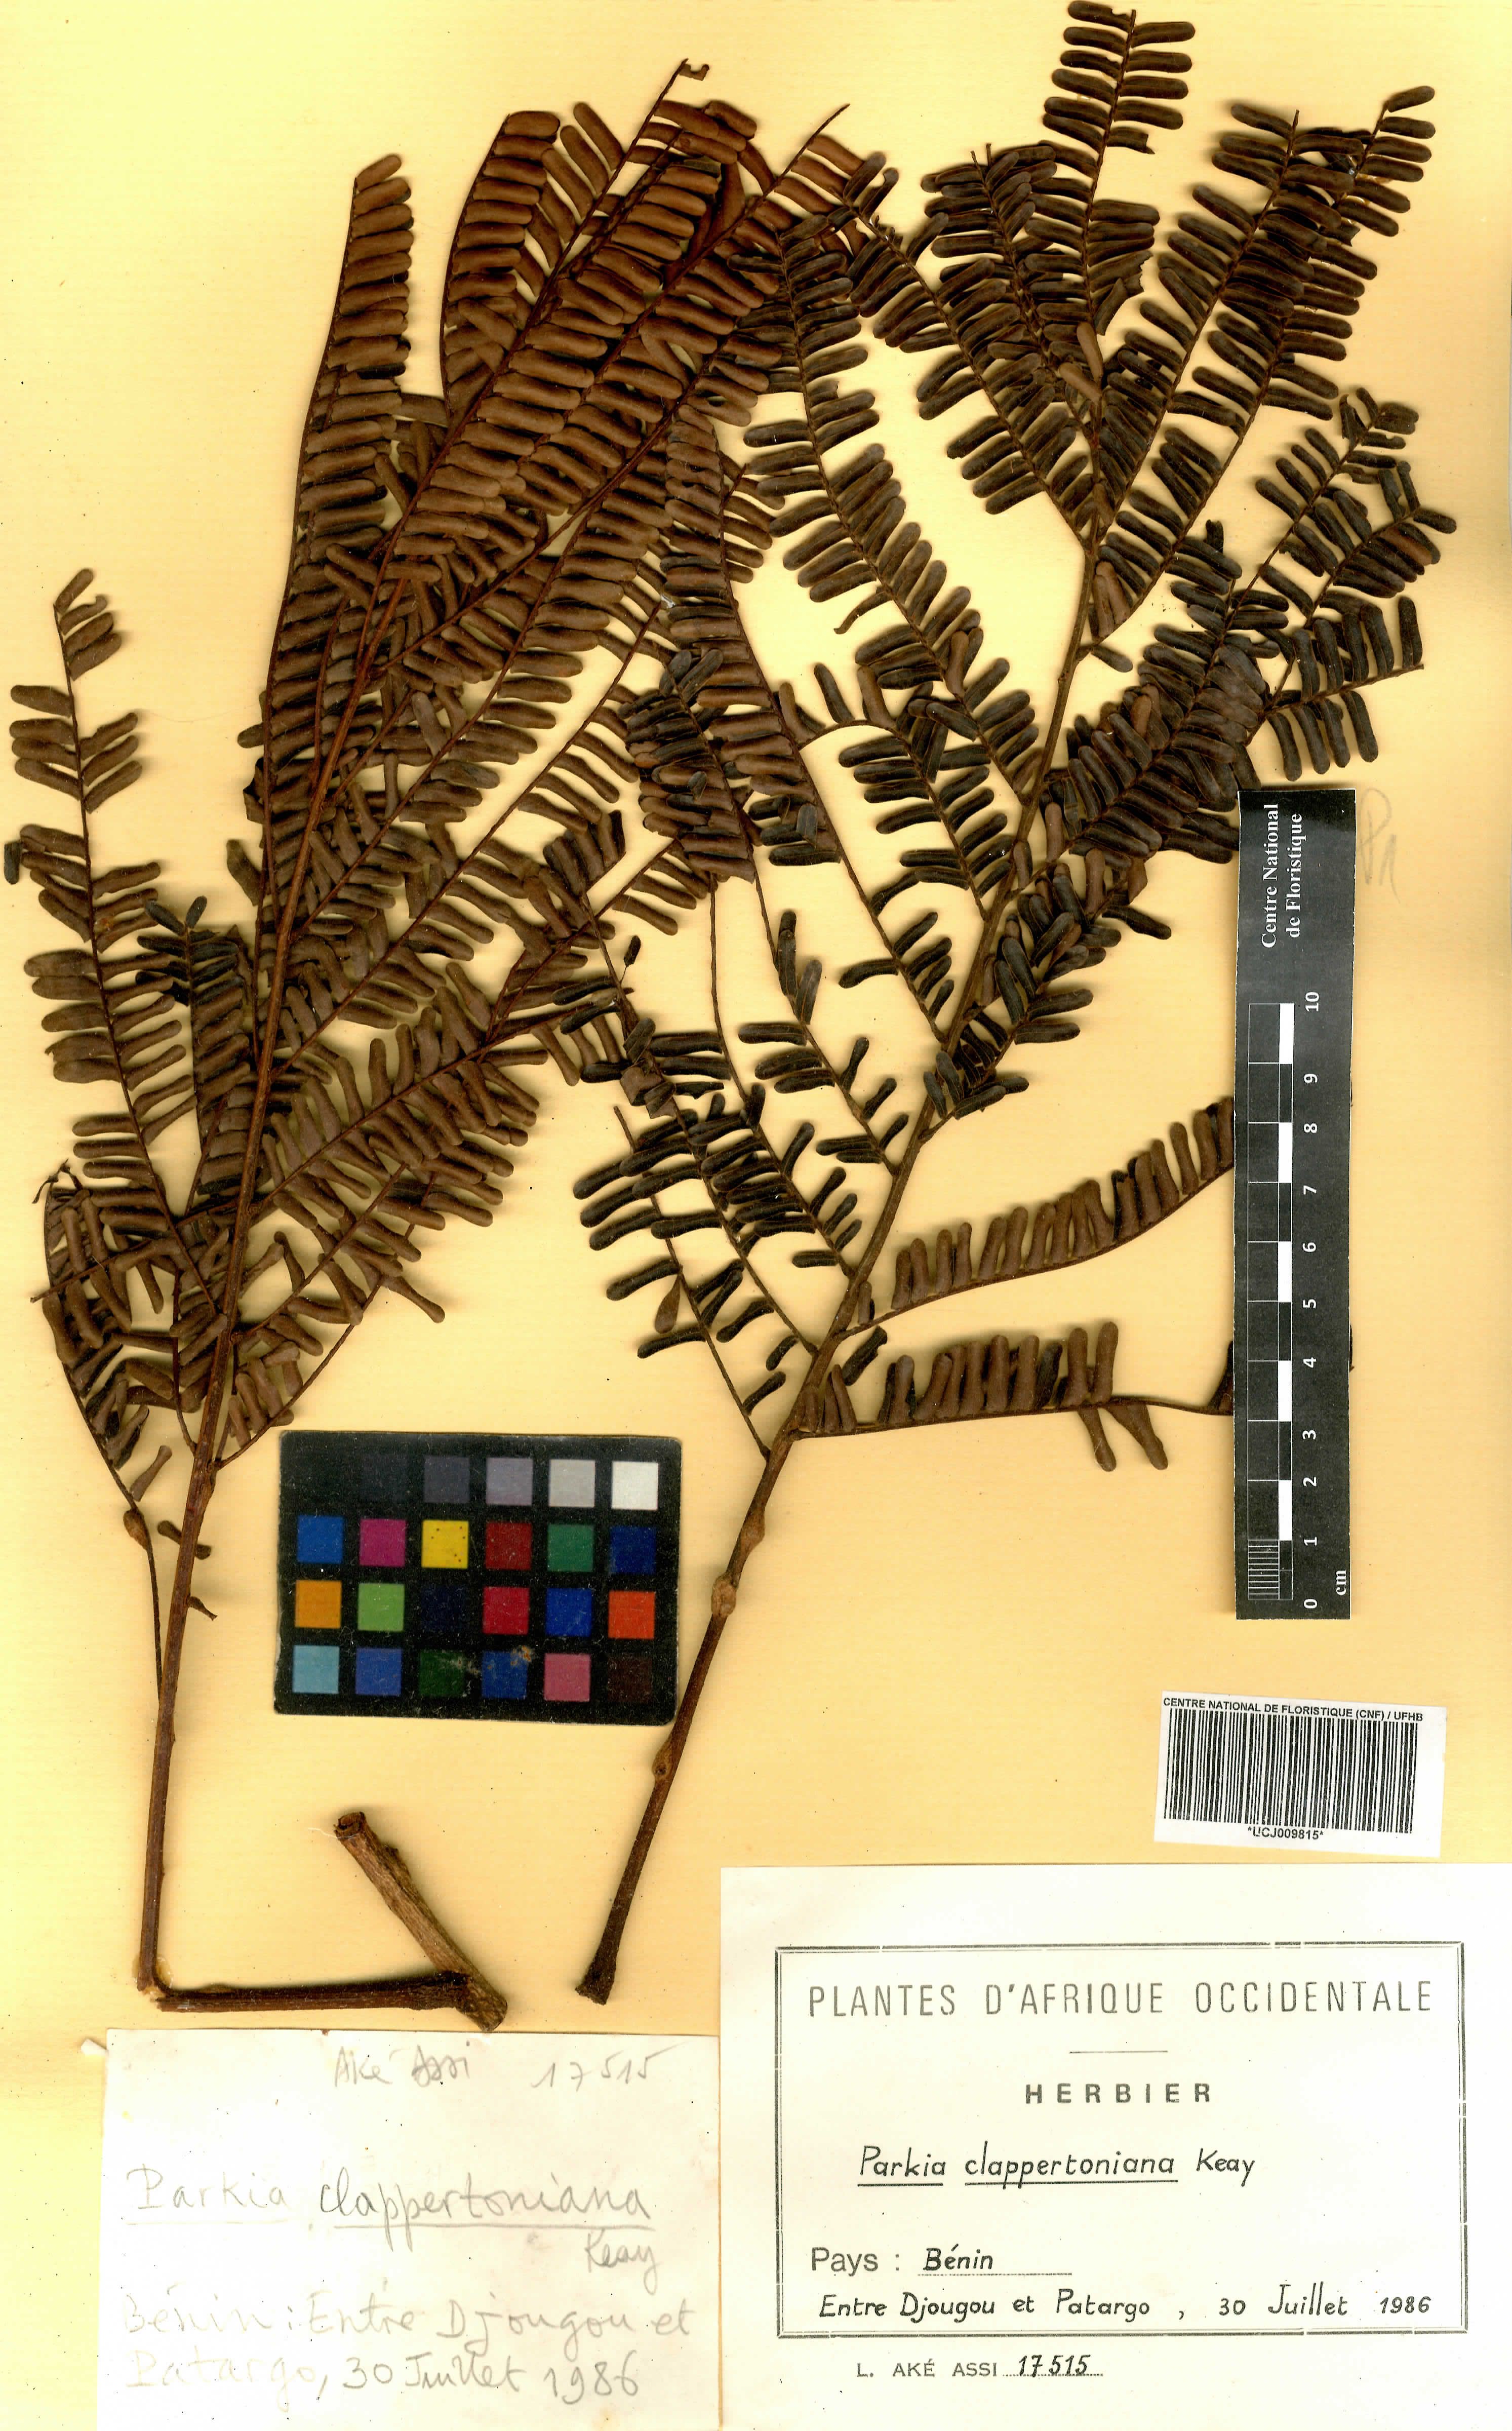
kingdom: Plantae
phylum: Tracheophyta
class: Magnoliopsida
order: Fabales
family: Fabaceae
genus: Parkia
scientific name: Parkia biglobosa
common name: African locust-bean
